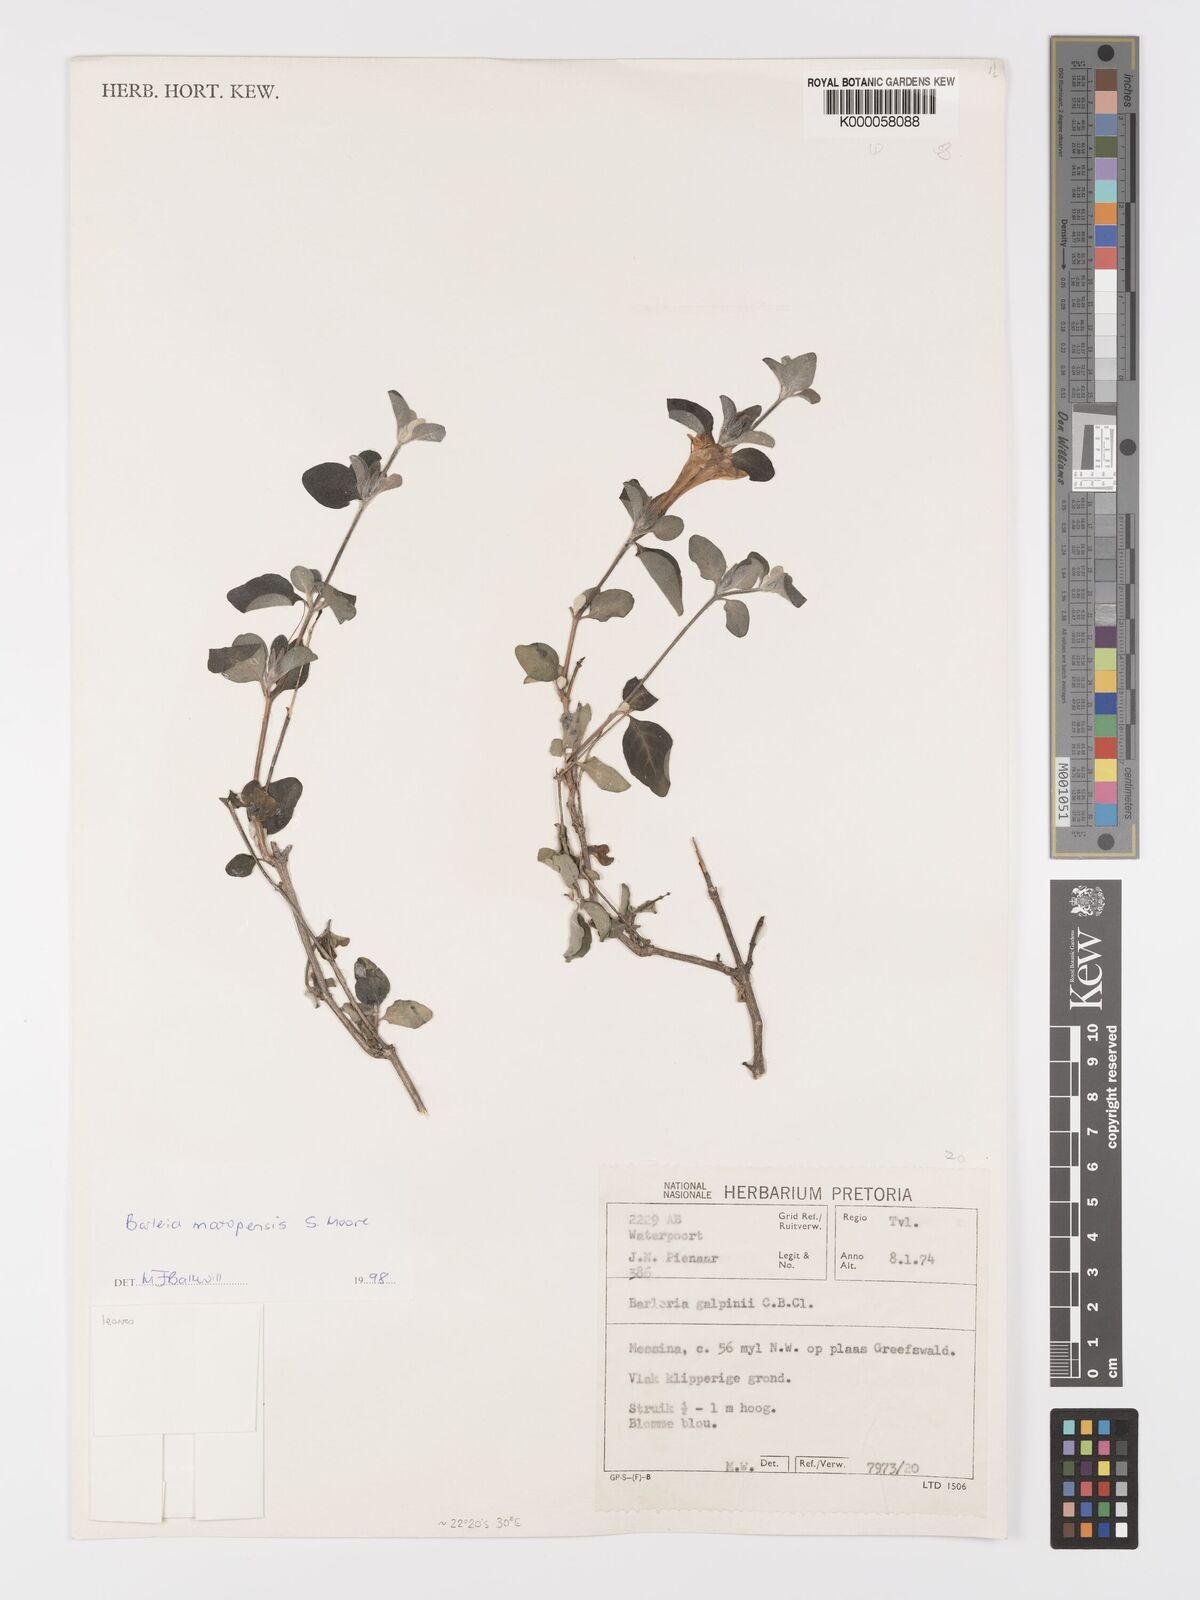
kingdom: Plantae
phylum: Tracheophyta
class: Magnoliopsida
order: Lamiales
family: Acanthaceae
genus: Barleria
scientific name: Barleria matopensis
